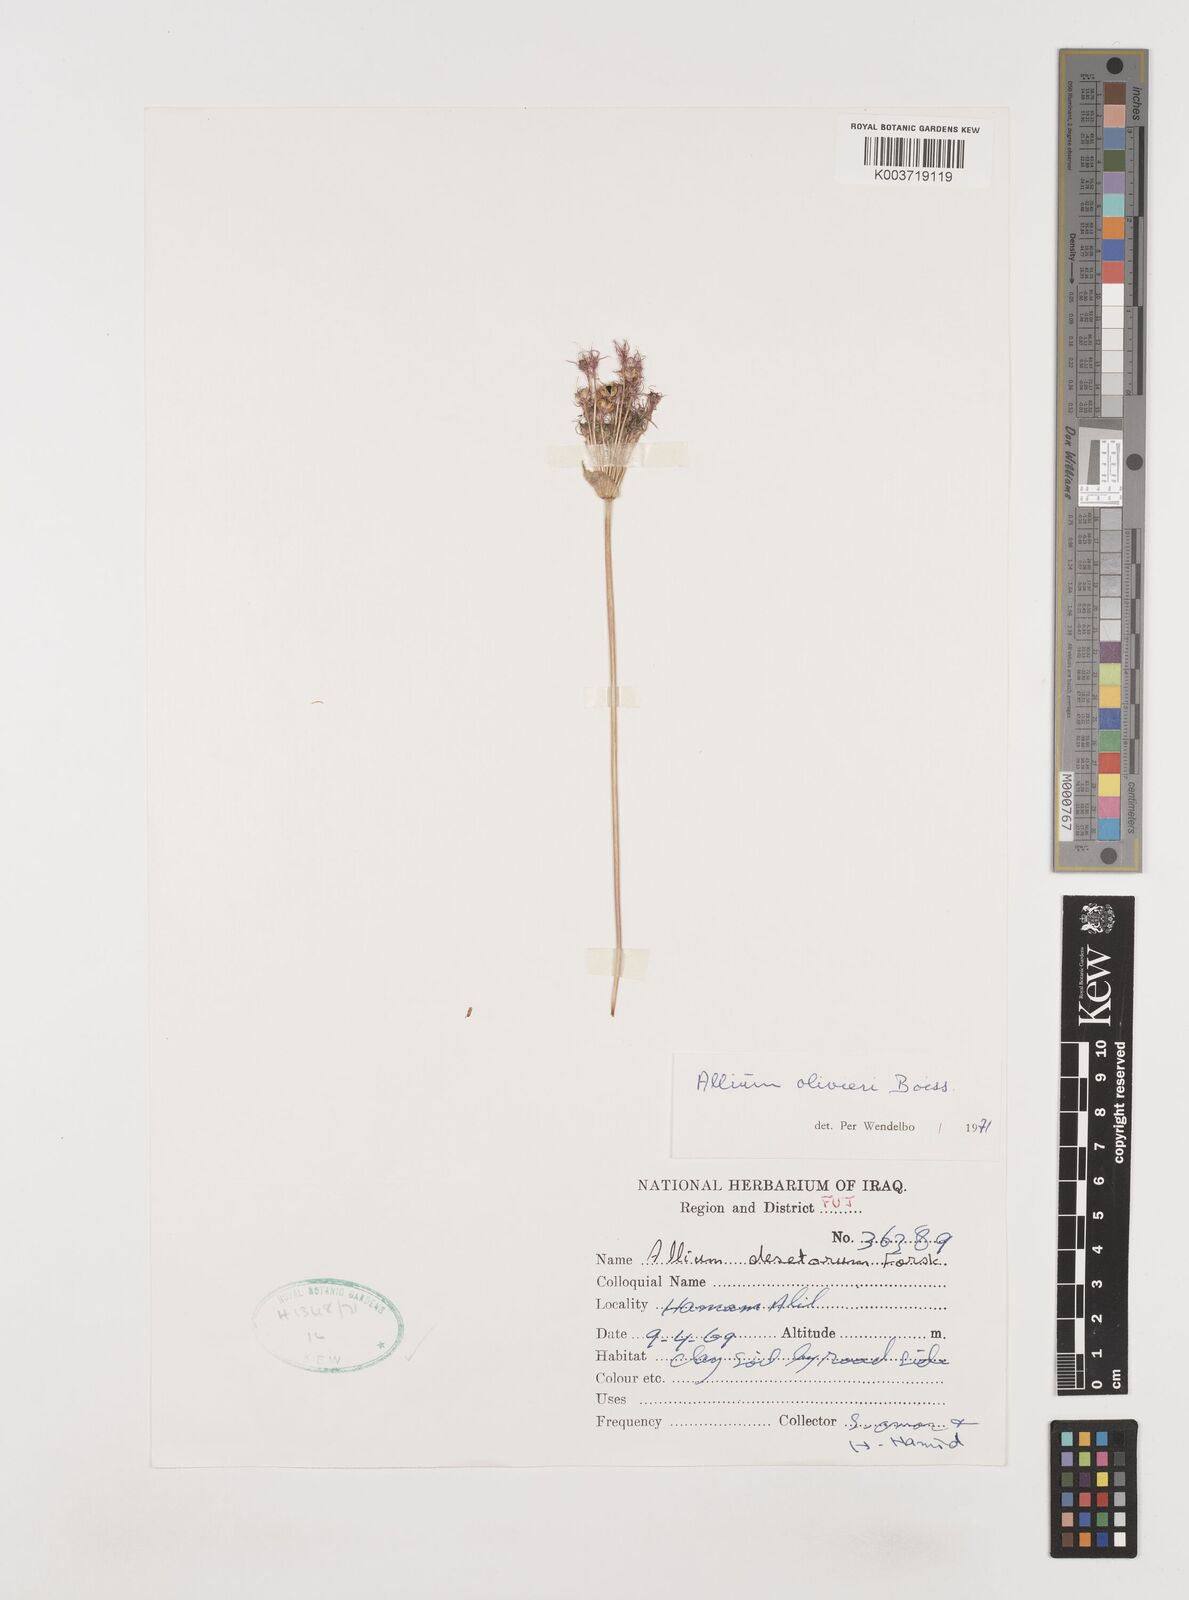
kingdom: Plantae
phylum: Tracheophyta
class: Liliopsida
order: Asparagales
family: Amaryllidaceae
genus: Allium
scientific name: Allium olivieri
